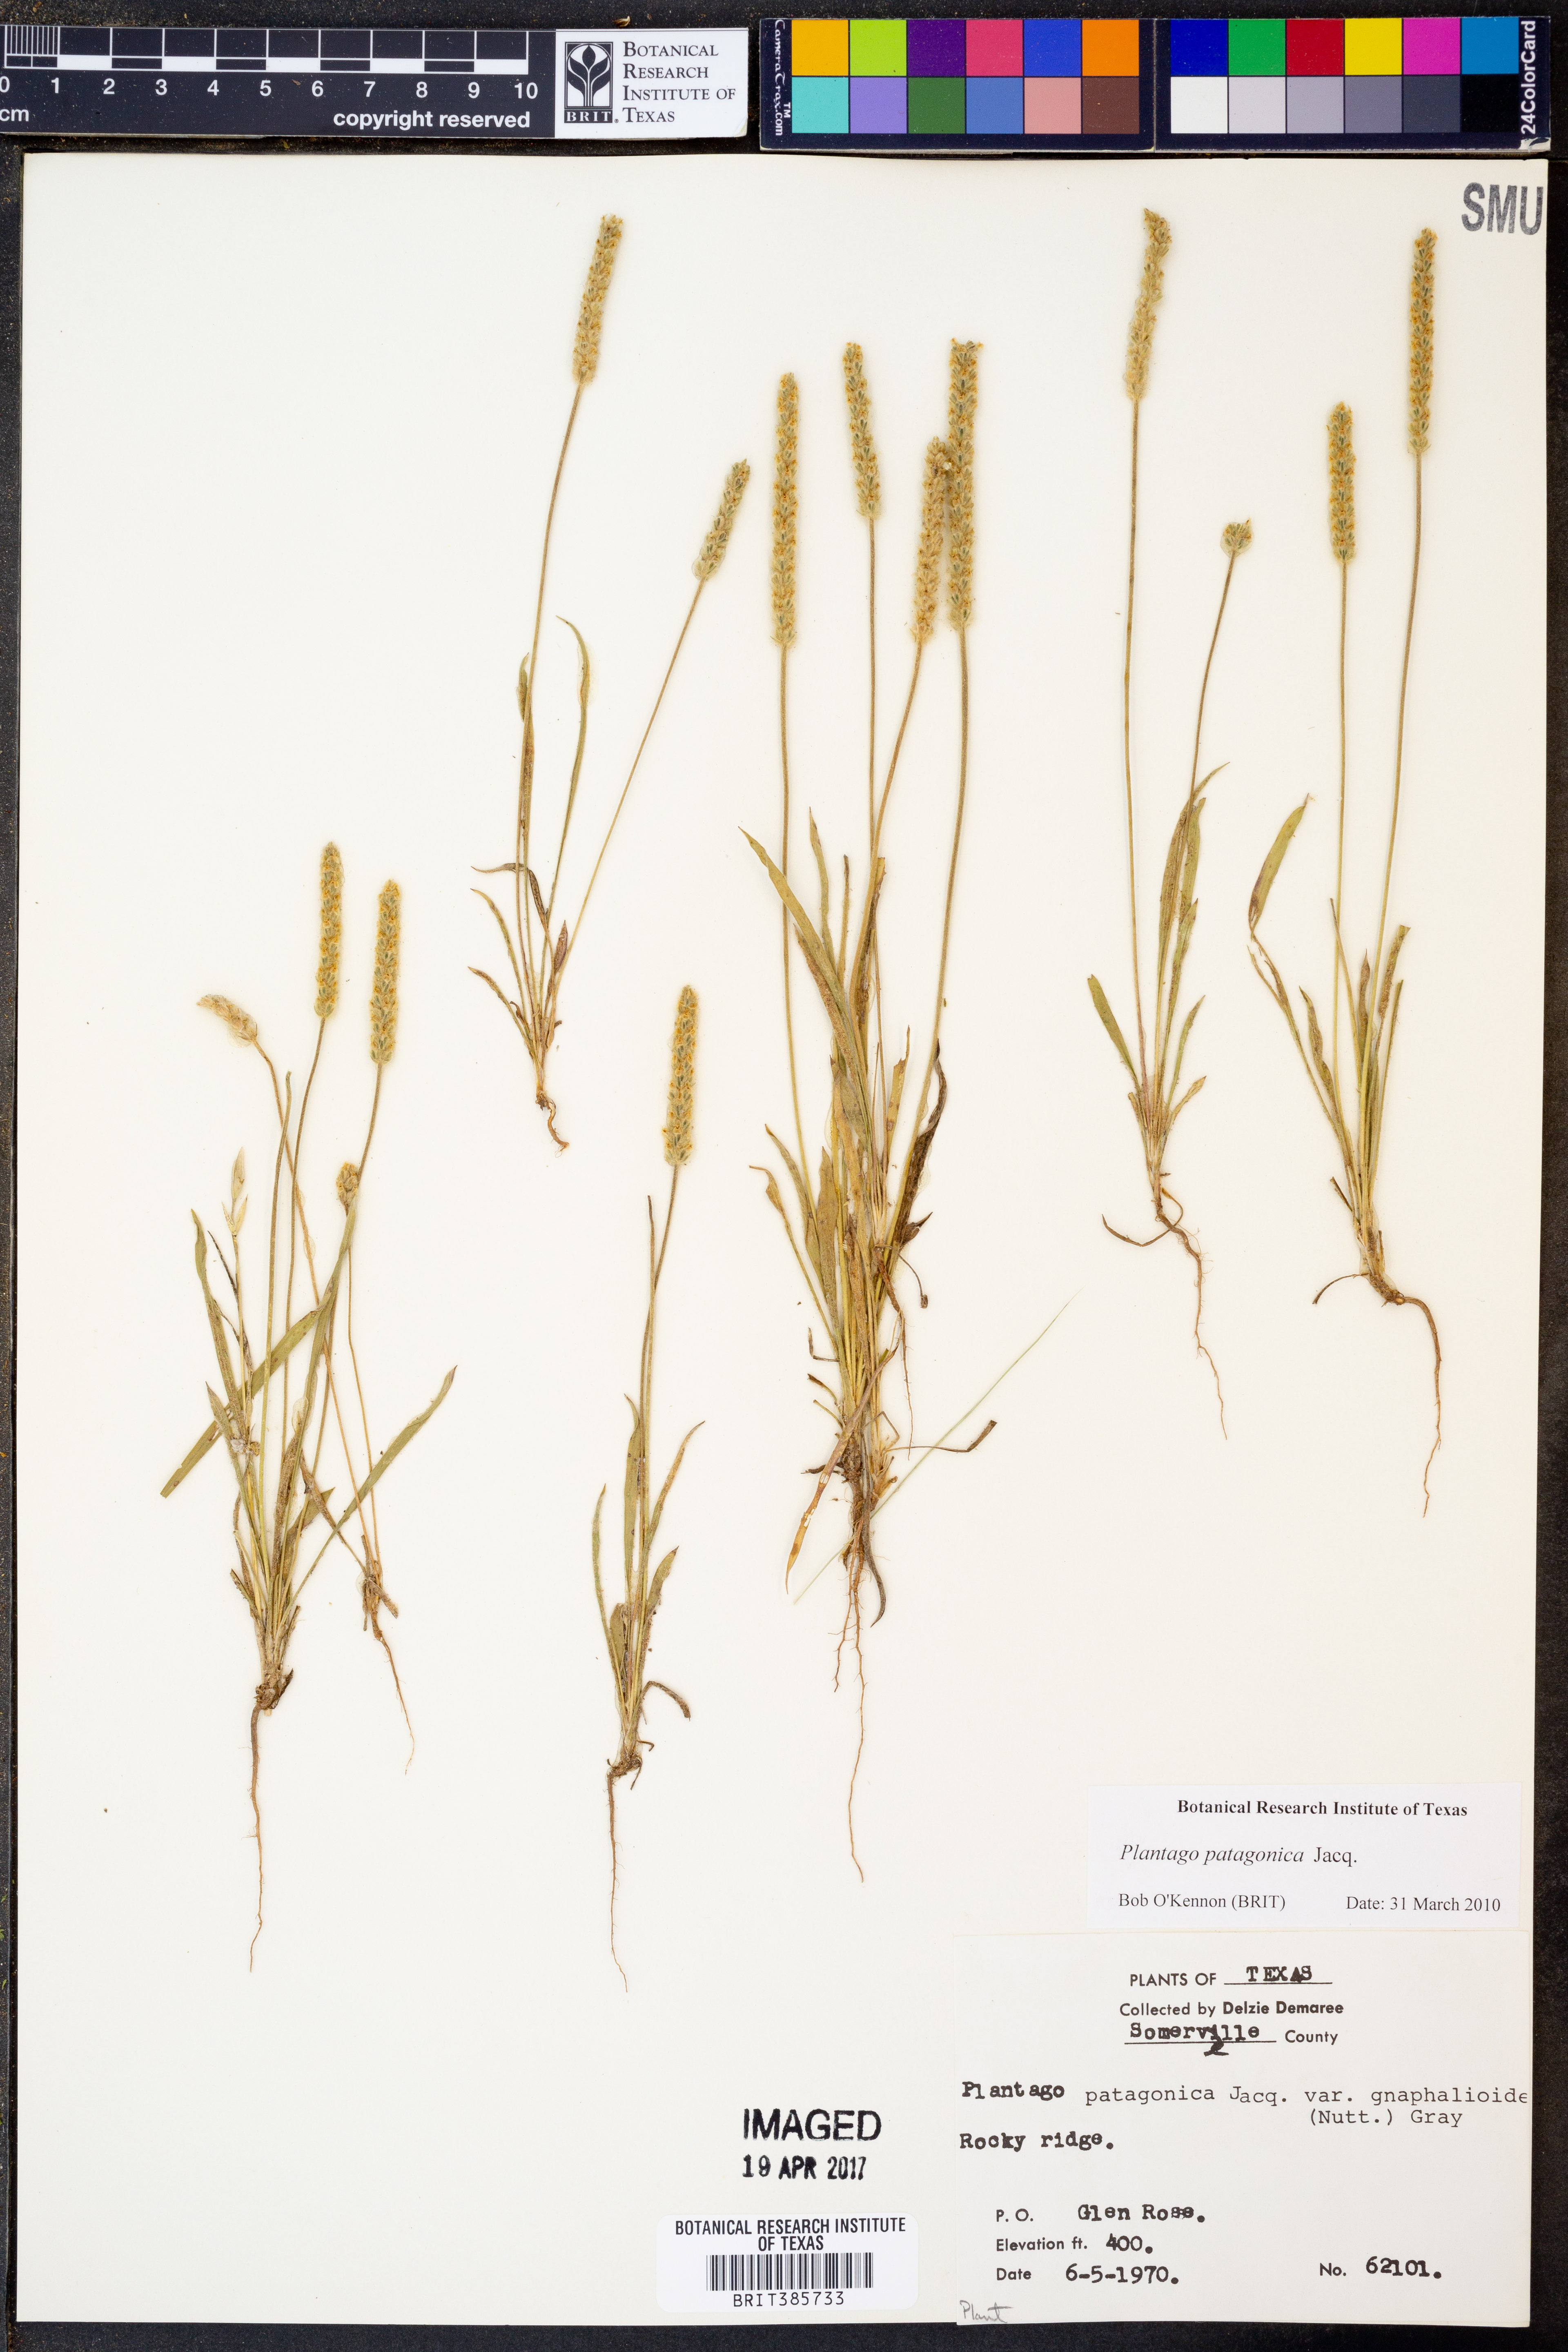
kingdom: Plantae
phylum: Tracheophyta
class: Magnoliopsida
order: Lamiales
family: Plantaginaceae
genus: Plantago
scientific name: Plantago patagonica
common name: Patagonia indian-wheat
